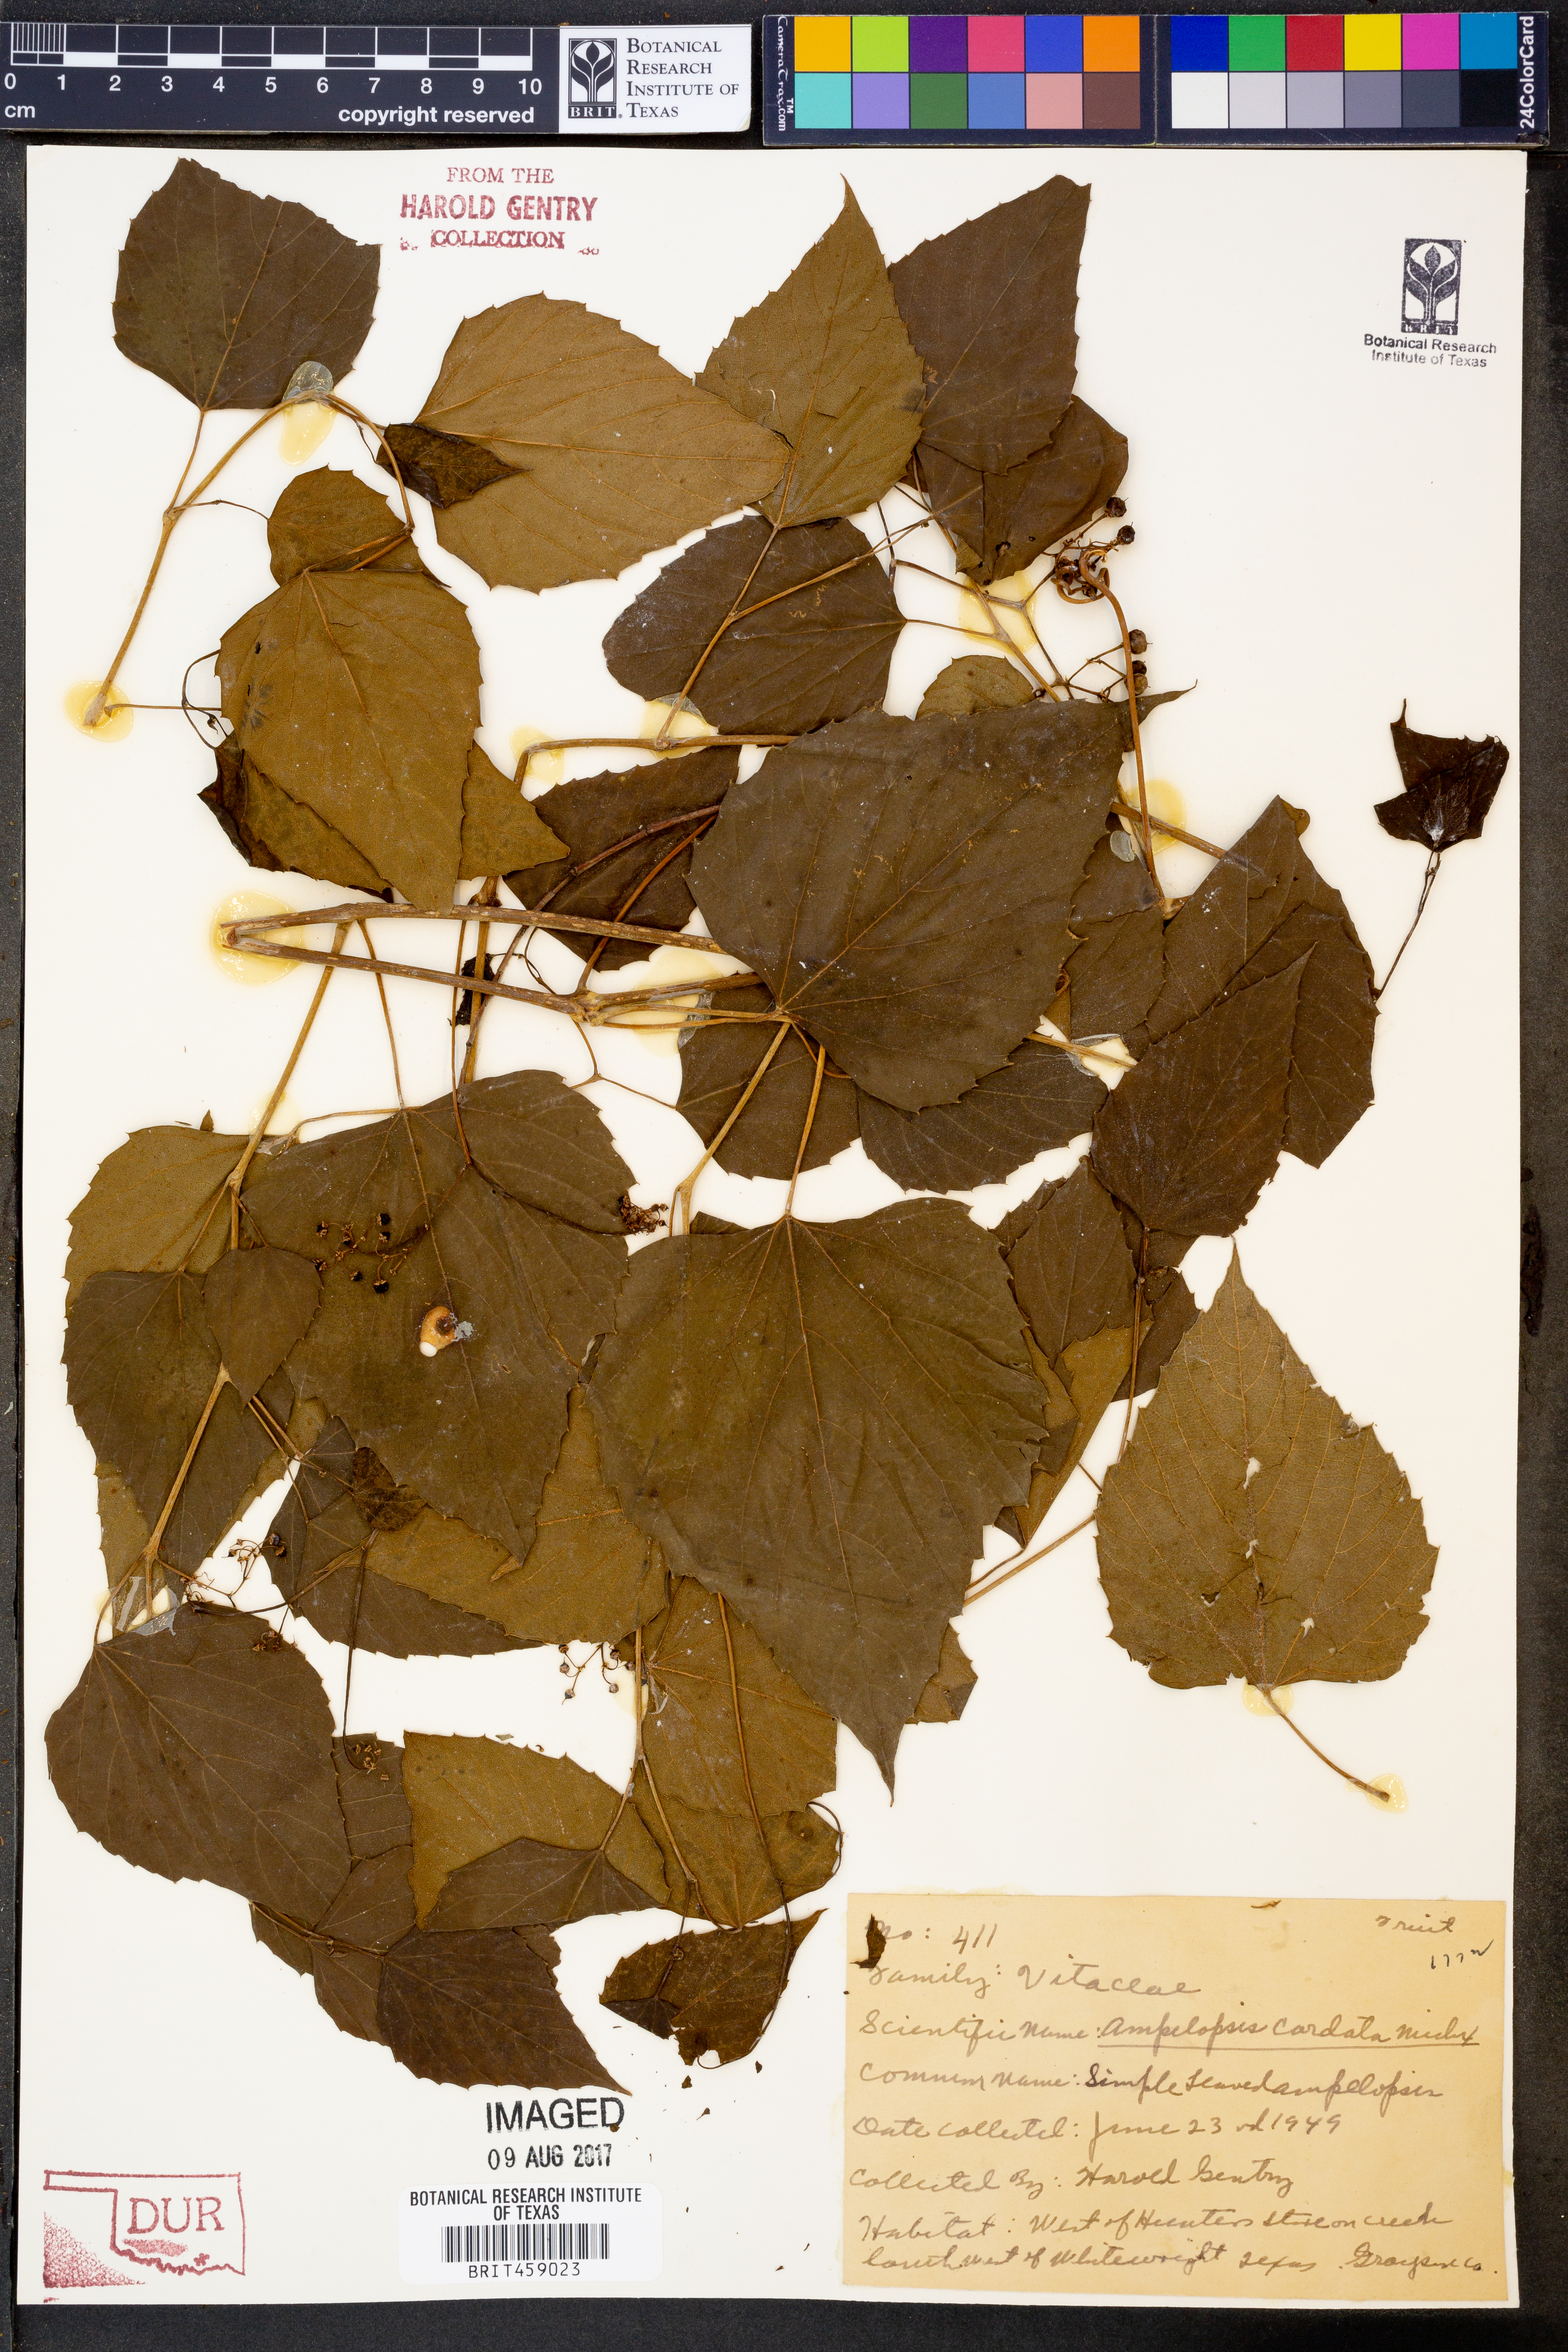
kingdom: Plantae
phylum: Tracheophyta
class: Magnoliopsida
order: Vitales
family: Vitaceae
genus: Ampelopsis
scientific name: Ampelopsis cordata
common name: Heart-leaf ampelopsis
